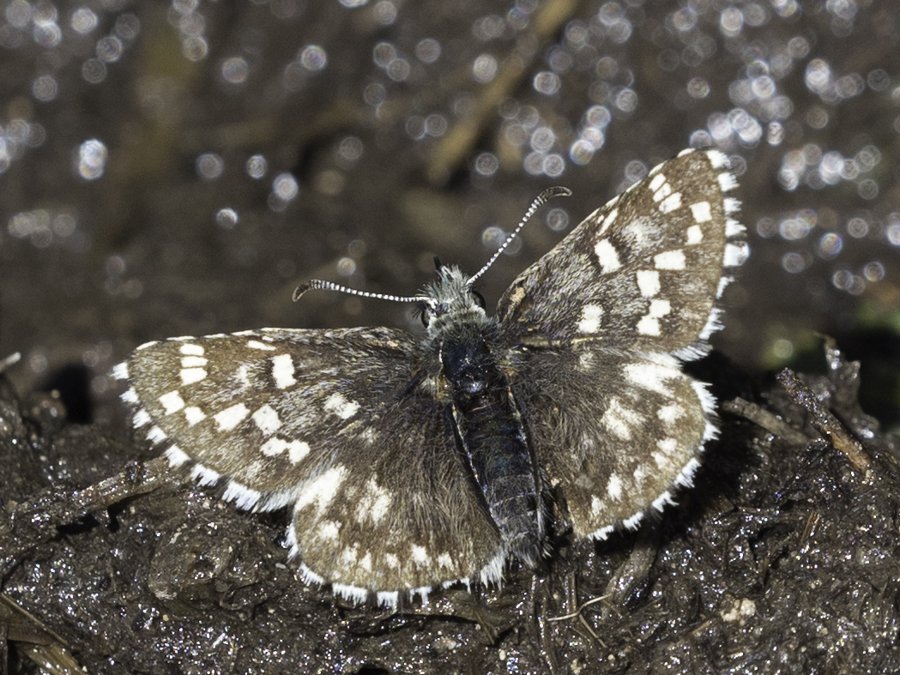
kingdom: Animalia
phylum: Arthropoda
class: Insecta
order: Lepidoptera
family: Hesperiidae
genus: Pyrgus
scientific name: Pyrgus centaureae
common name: Grizzled Skipper
